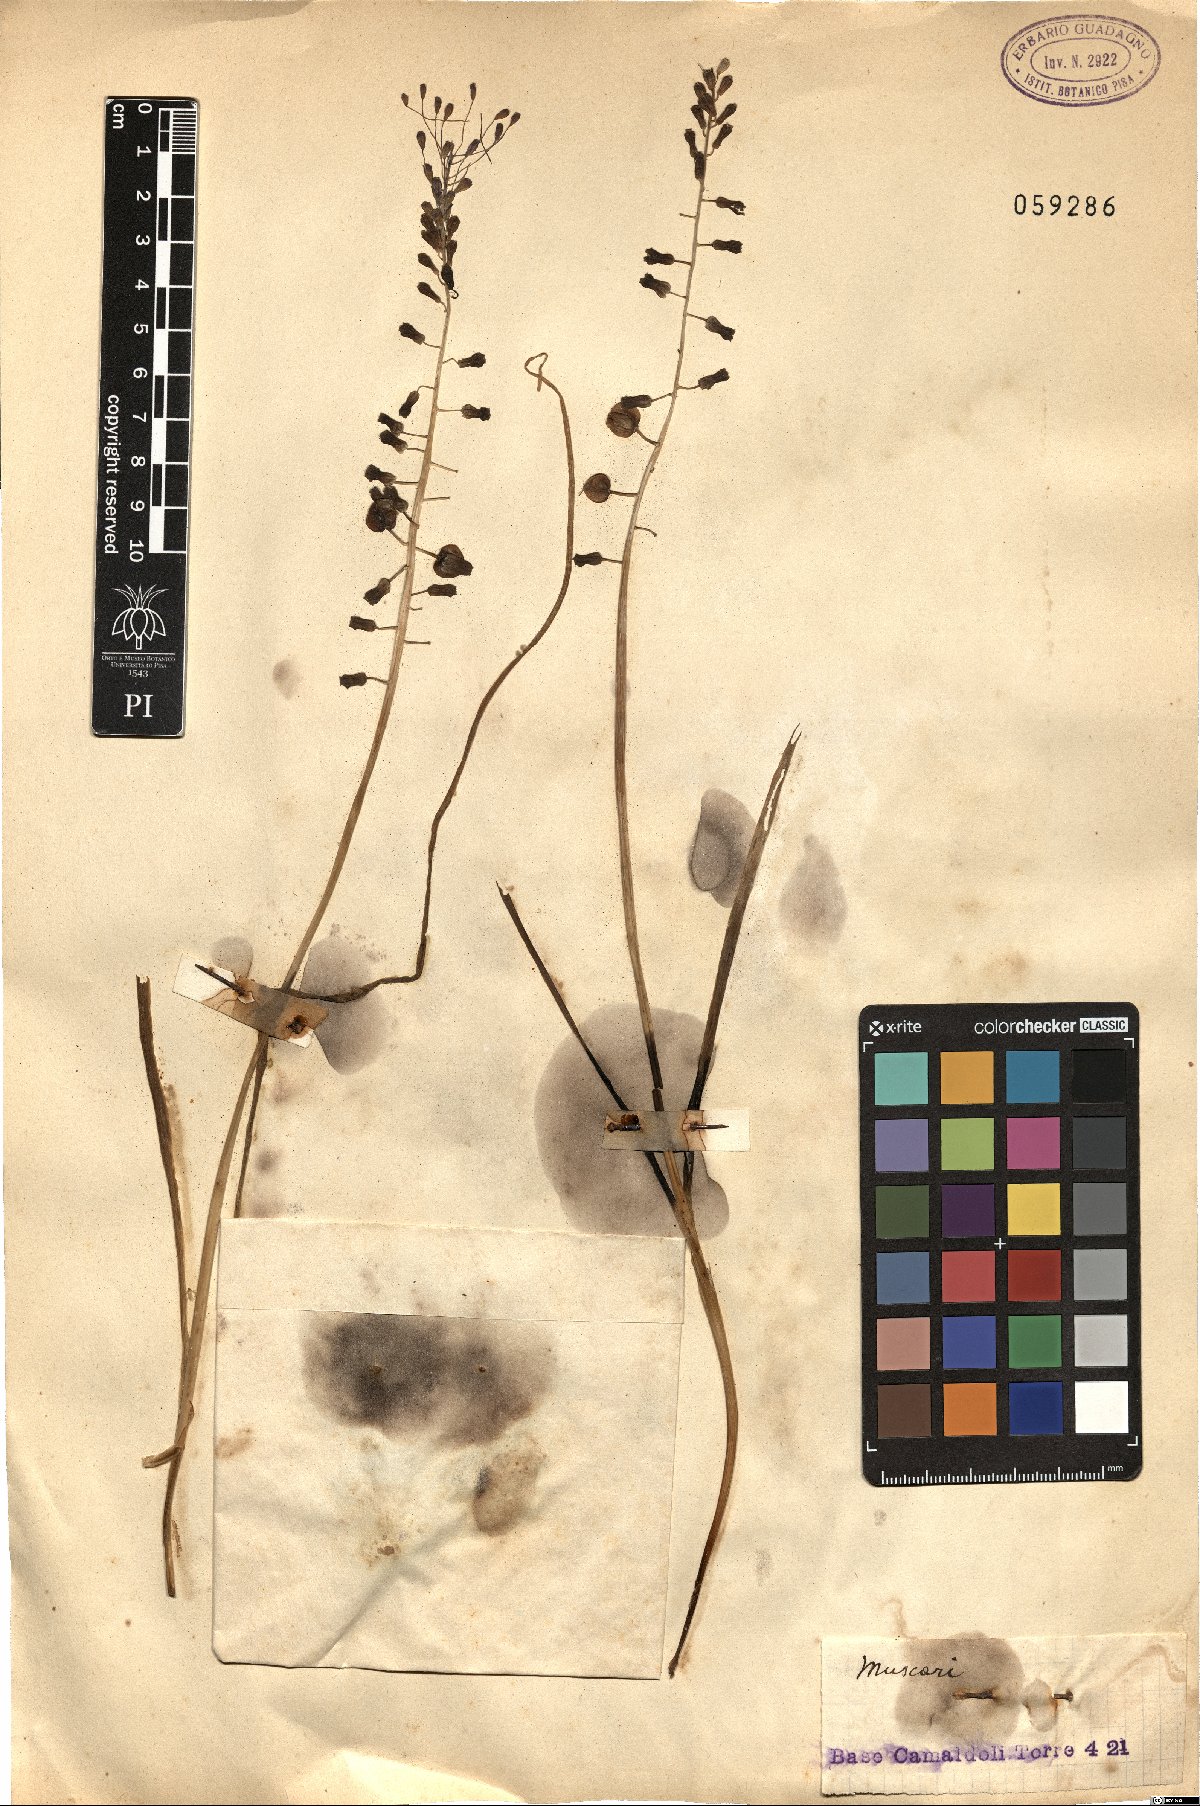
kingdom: Plantae
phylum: Tracheophyta
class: Liliopsida
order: Asparagales
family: Asparagaceae
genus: Muscari
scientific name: Muscari
